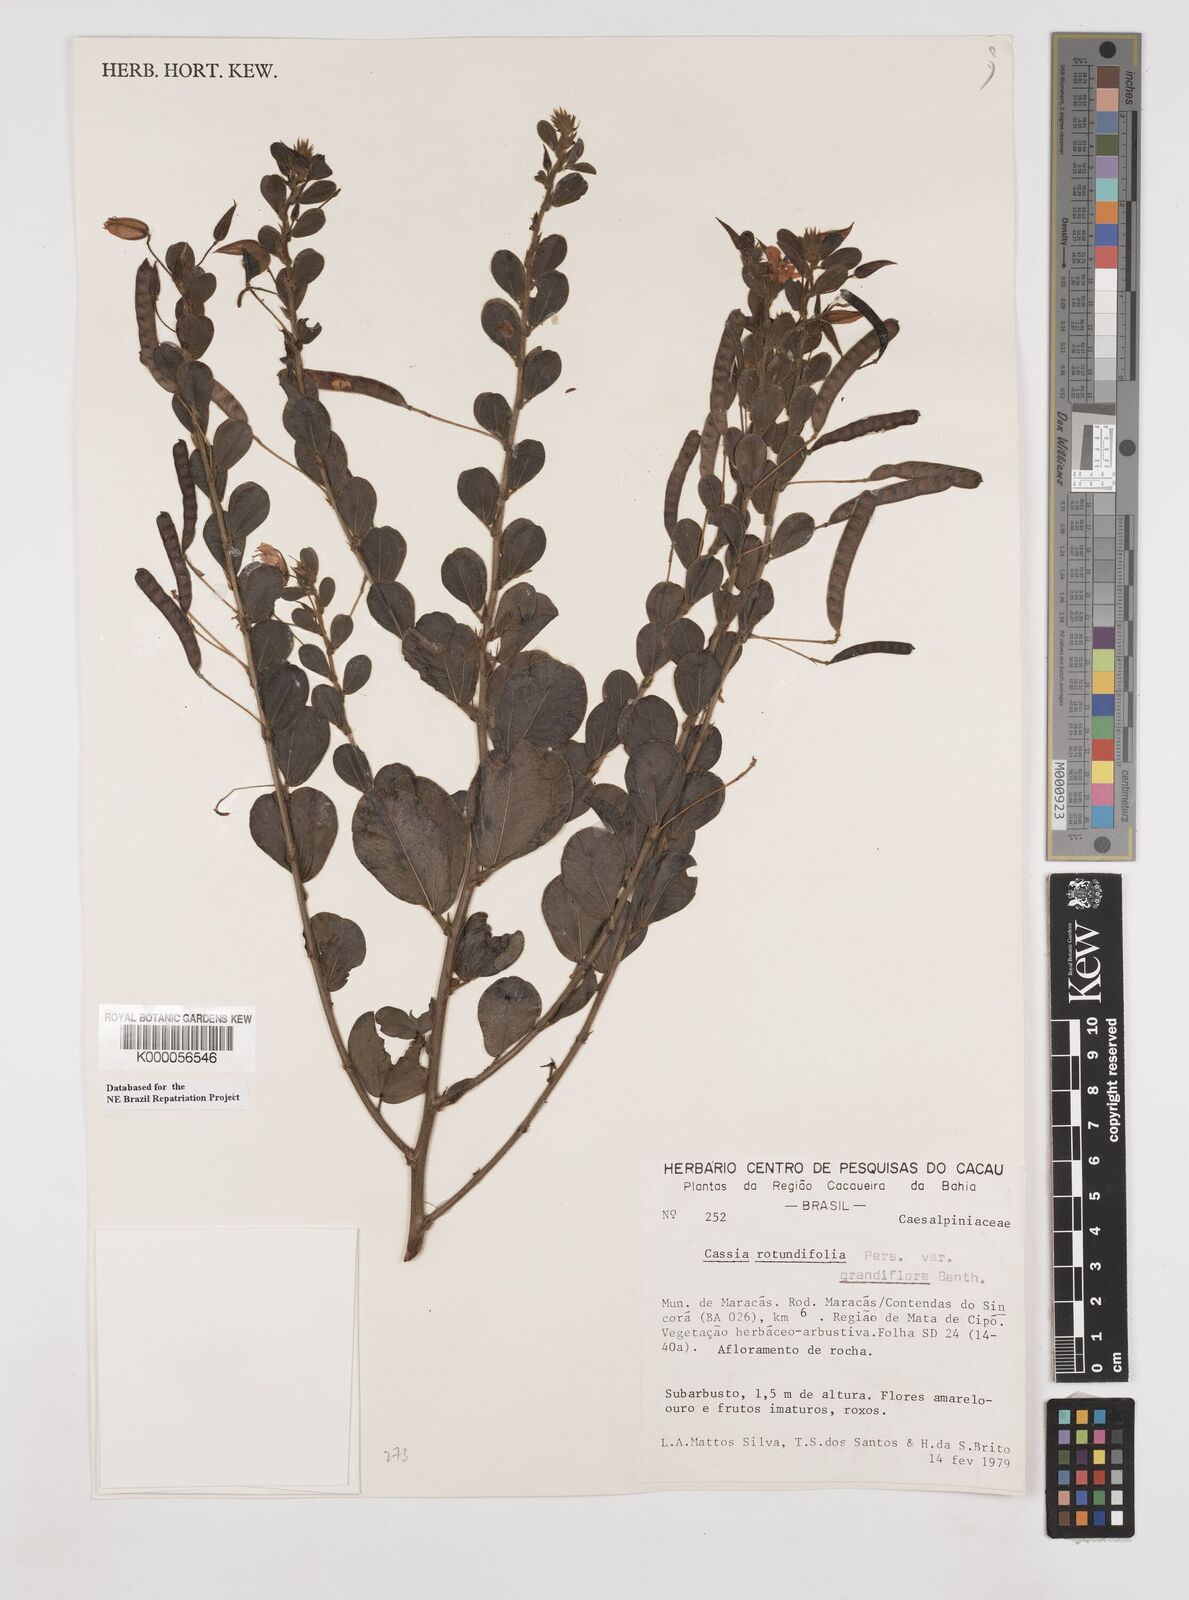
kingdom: Plantae
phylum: Tracheophyta
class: Magnoliopsida
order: Fabales
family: Fabaceae
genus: Chamaecrista
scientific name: Chamaecrista rotundifolia
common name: Round-leaf cassia
